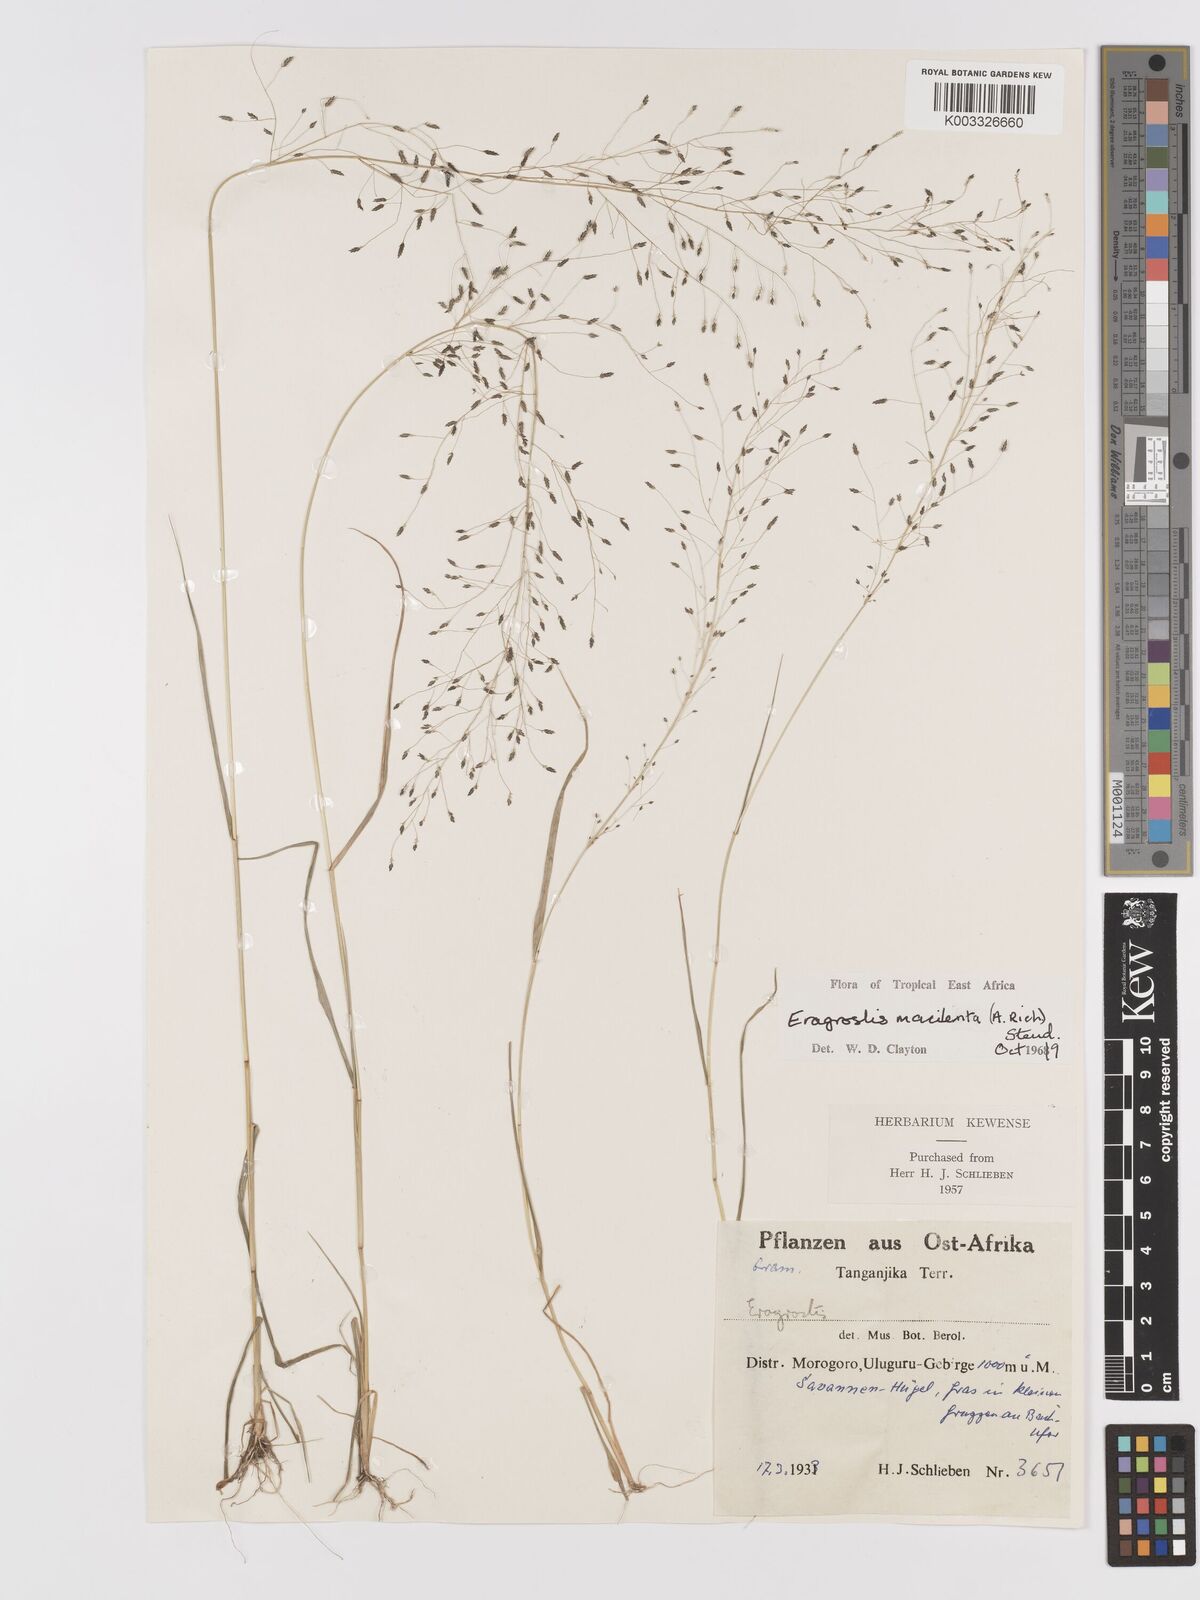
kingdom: Plantae
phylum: Tracheophyta
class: Liliopsida
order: Poales
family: Poaceae
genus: Eragrostis
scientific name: Eragrostis macilenta
